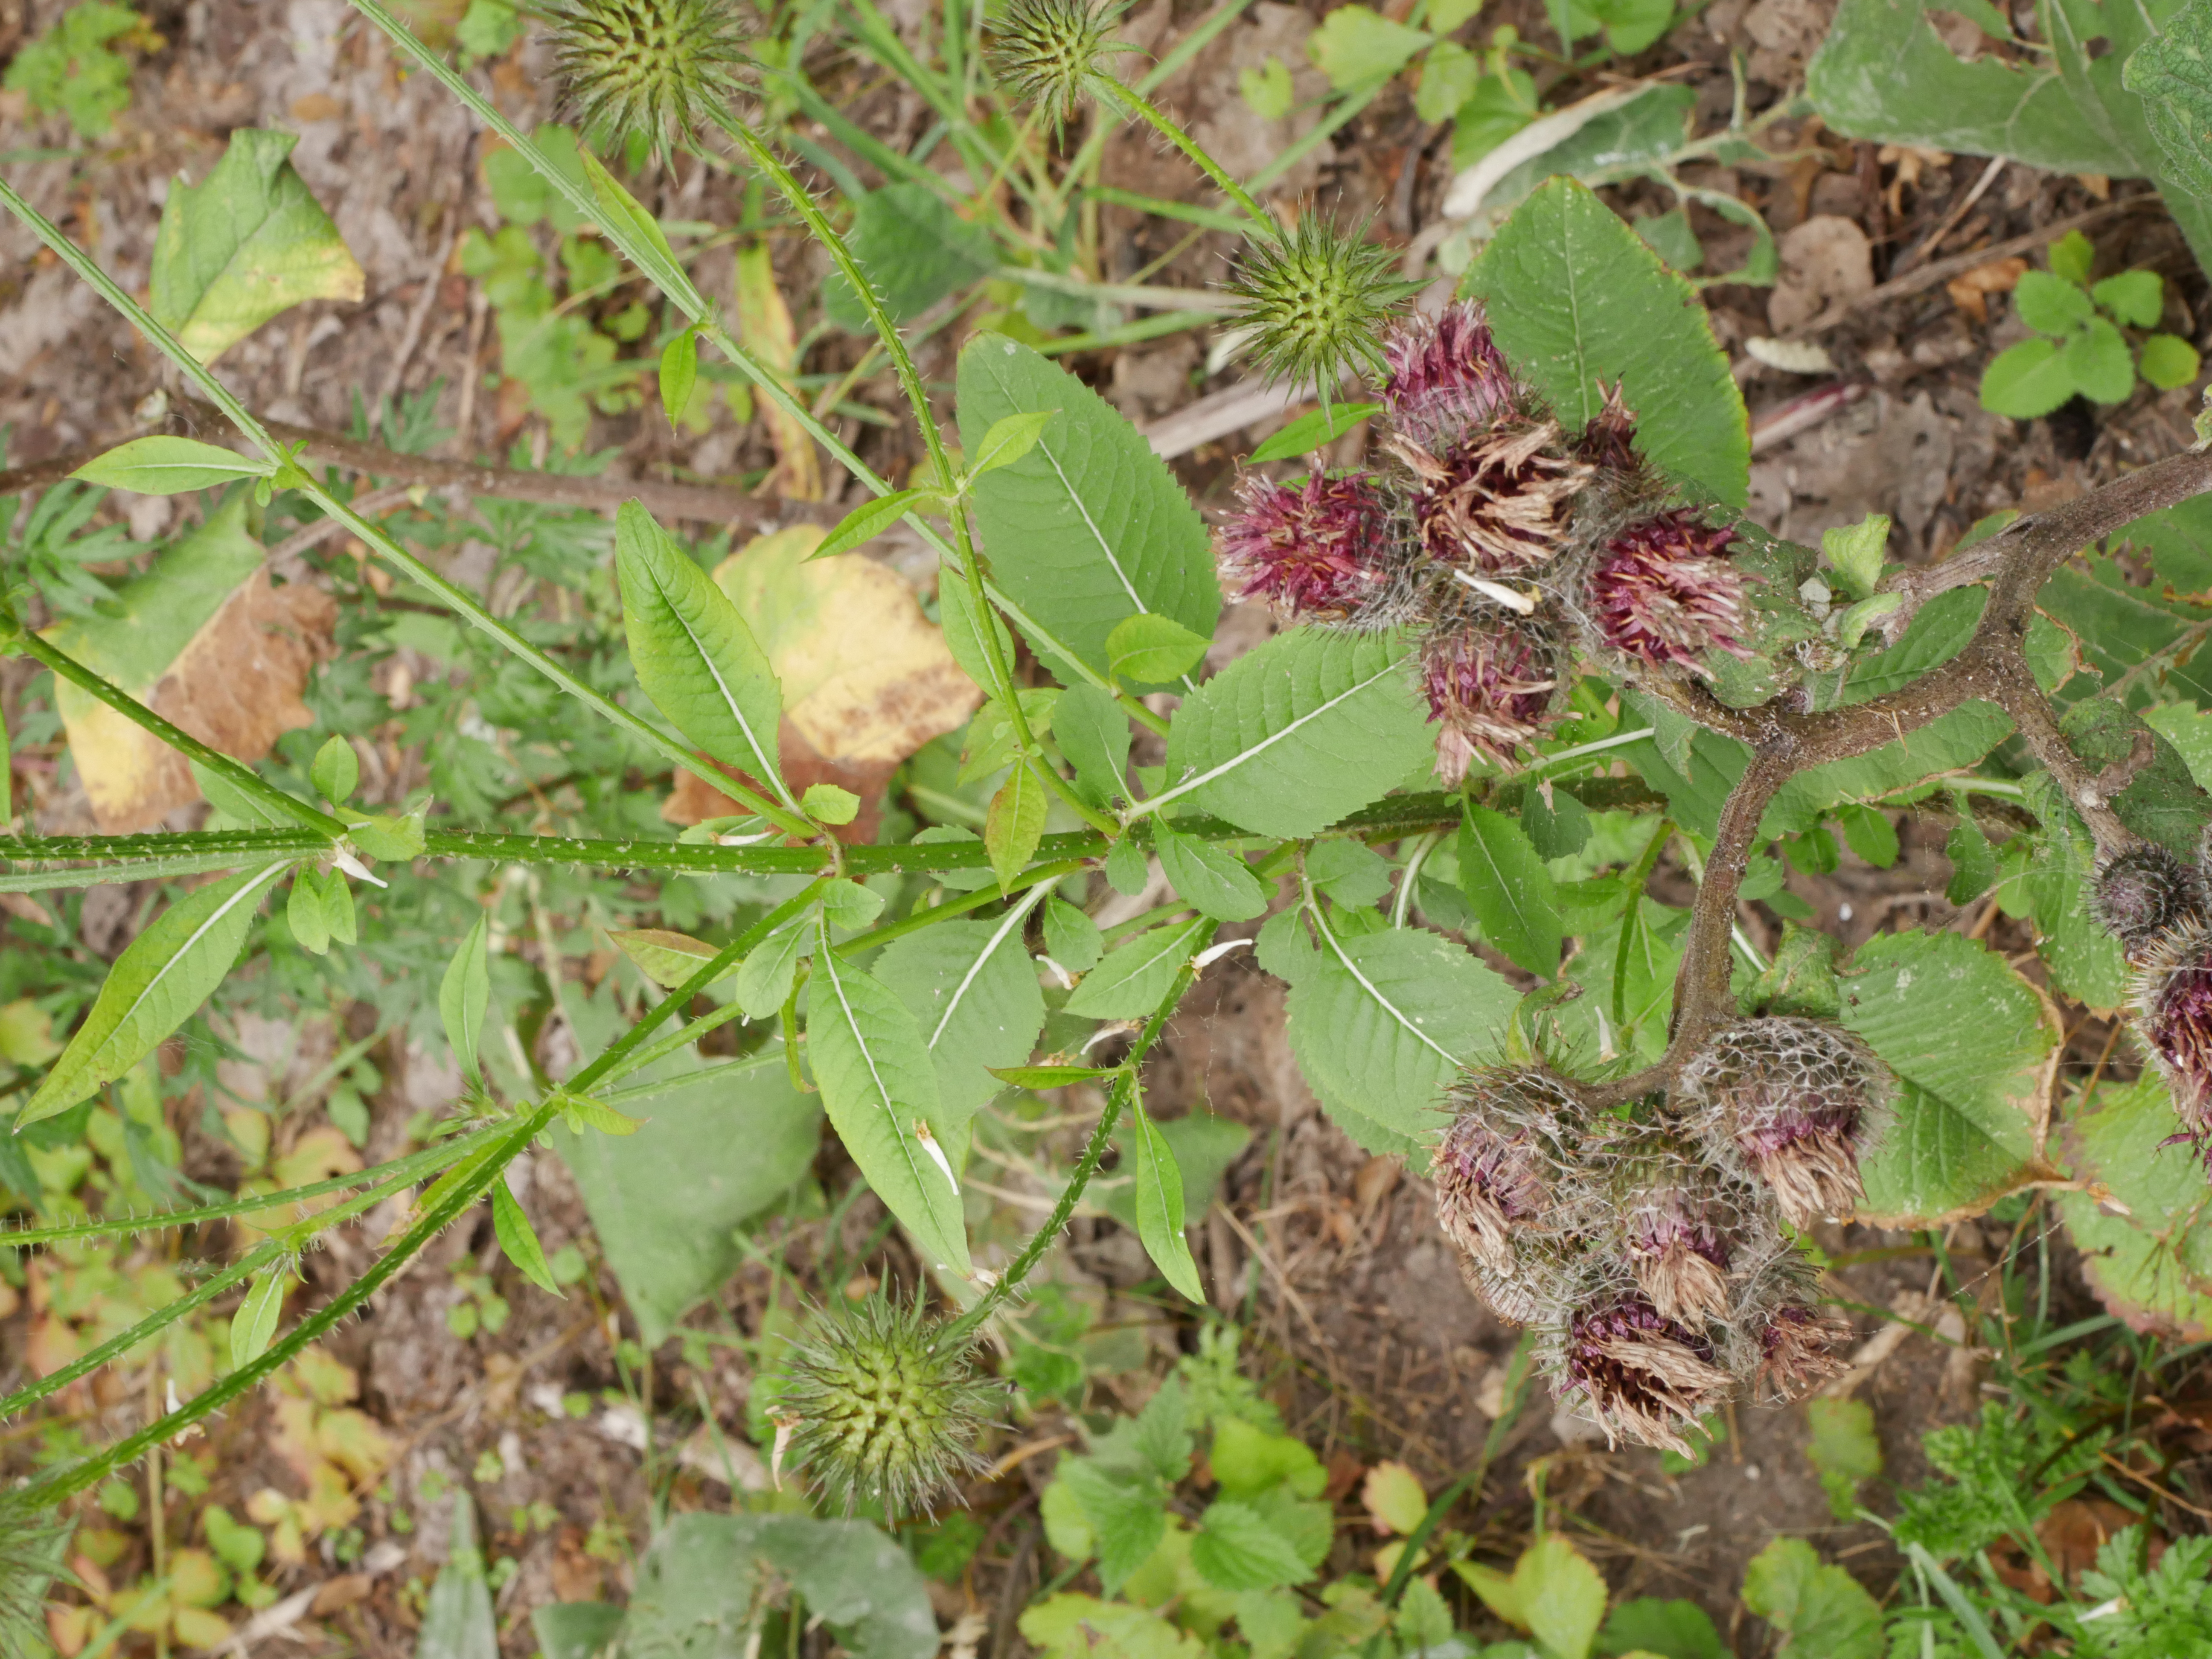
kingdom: Plantae
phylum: Tracheophyta
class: Magnoliopsida
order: Dipsacales
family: Caprifoliaceae
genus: Dipsacus
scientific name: Dipsacus strigosus
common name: Pindsvin-kartebolle
